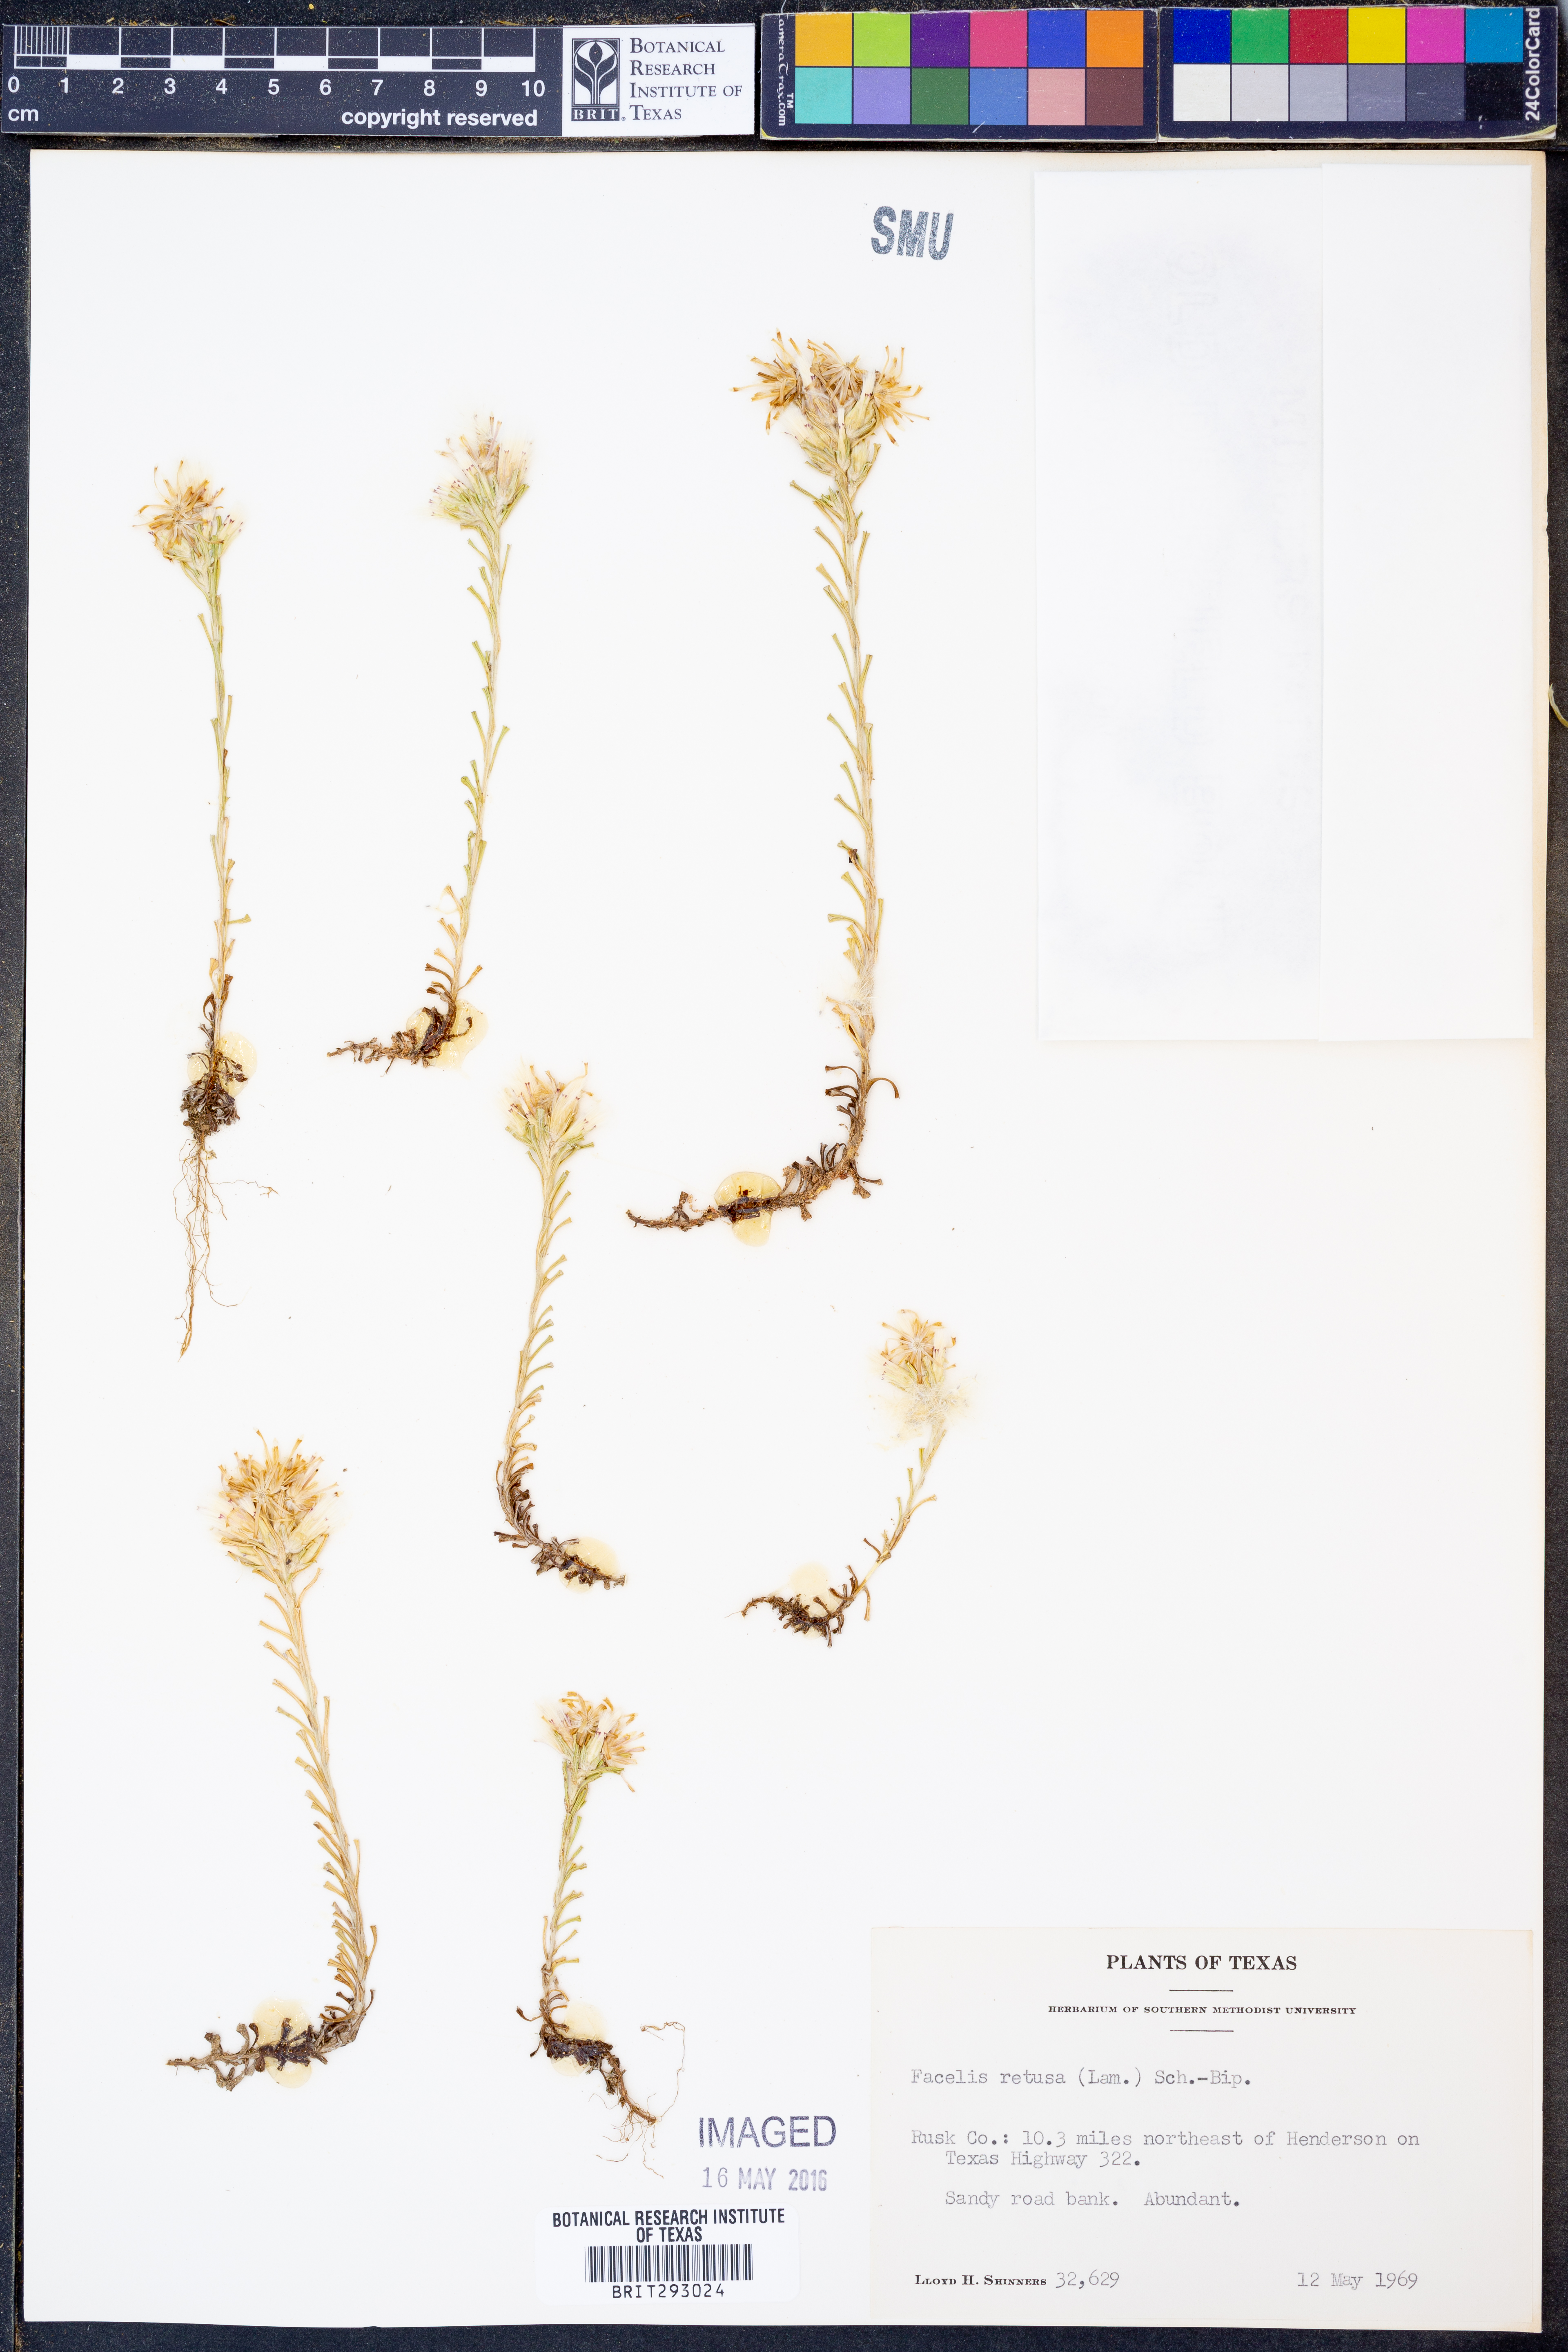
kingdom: Plantae
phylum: Tracheophyta
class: Magnoliopsida
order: Asterales
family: Asteraceae
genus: Facelis
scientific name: Facelis retusa
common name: Annual trampweed
